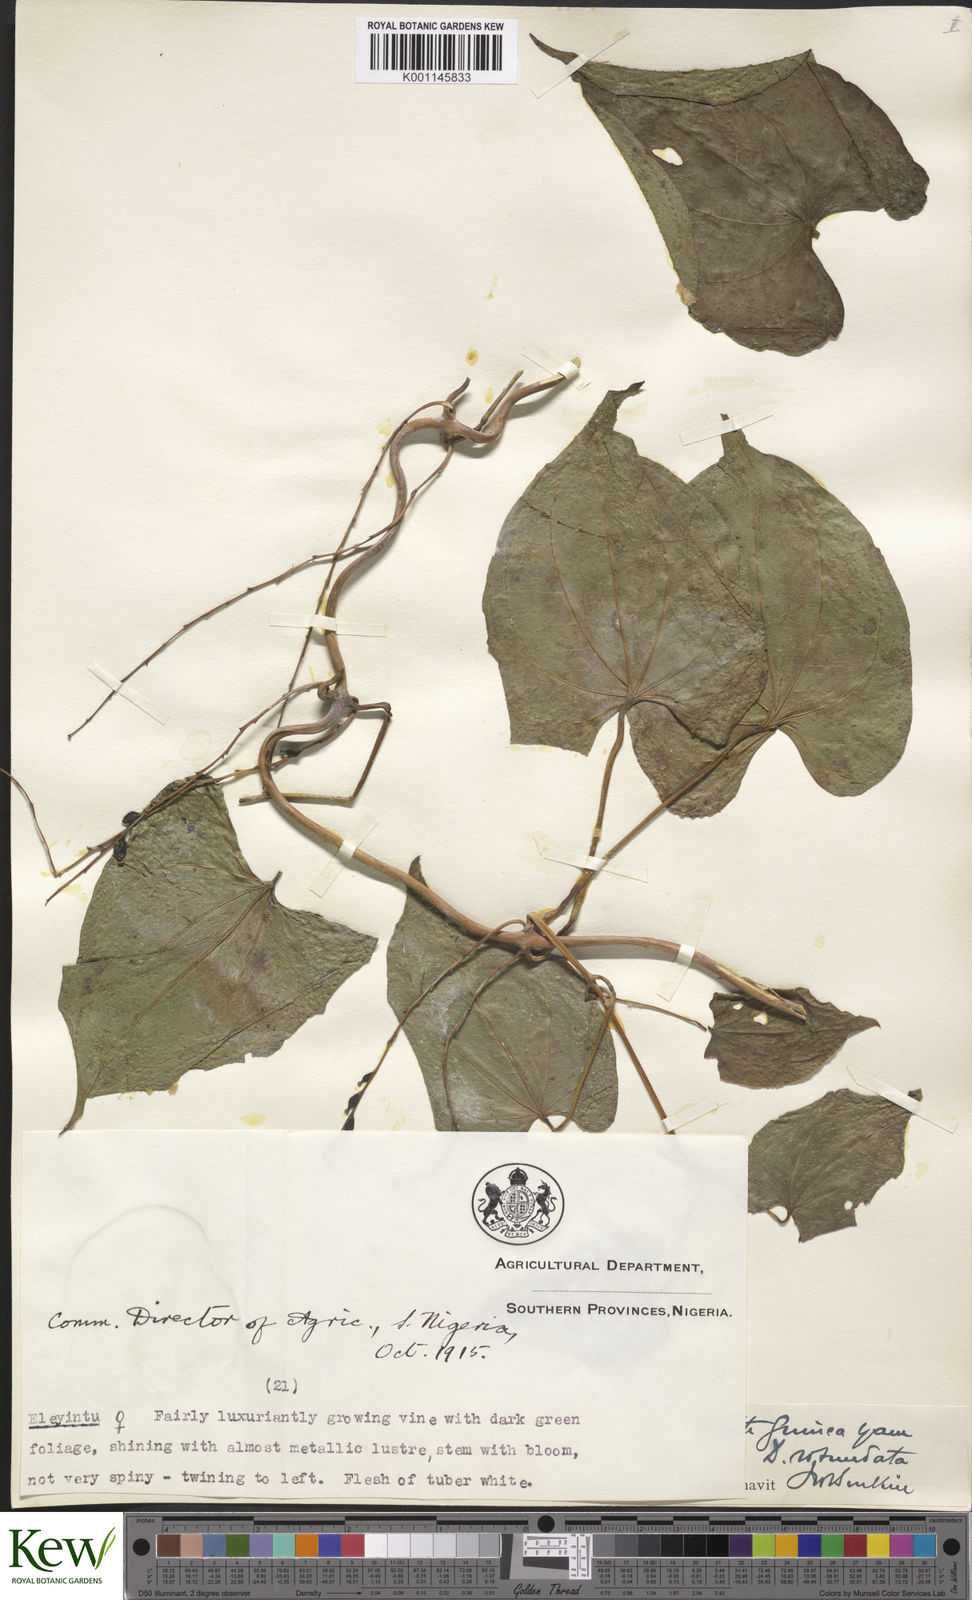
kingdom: Plantae
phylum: Tracheophyta
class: Liliopsida
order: Dioscoreales
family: Dioscoreaceae
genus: Dioscorea
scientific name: Dioscorea cayenensis
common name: Attoto yam
